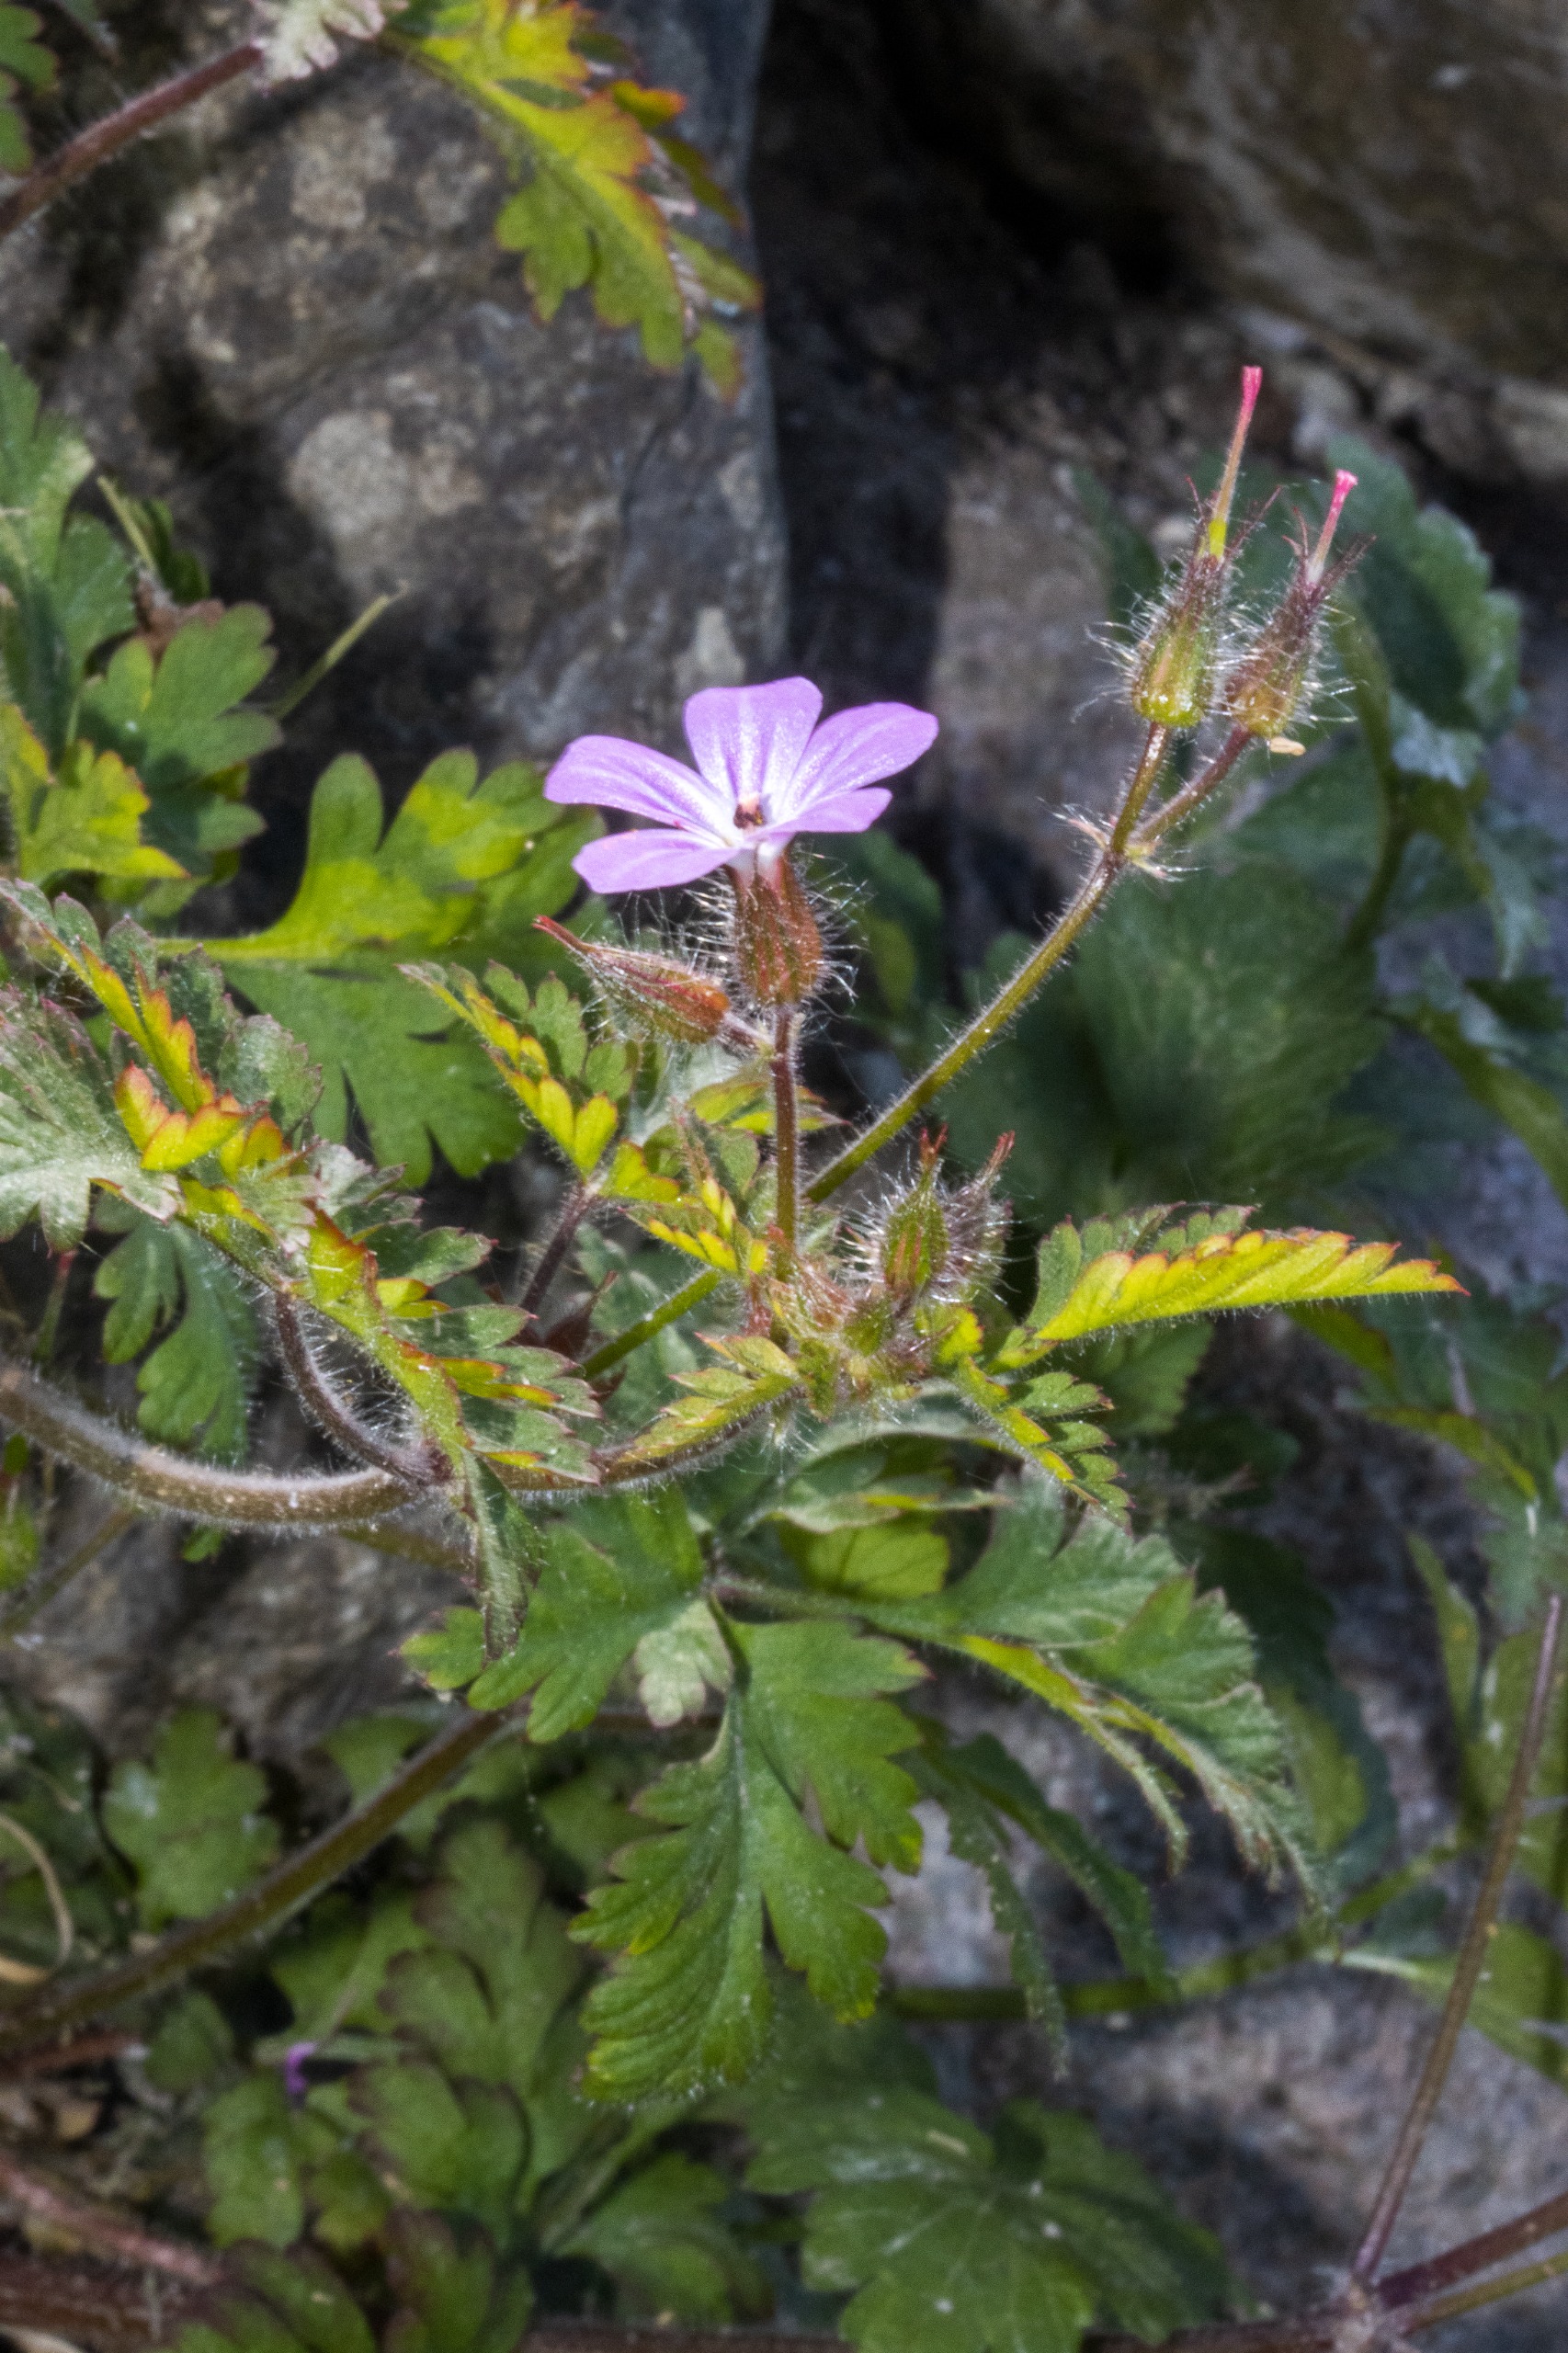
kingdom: Plantae
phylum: Tracheophyta
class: Magnoliopsida
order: Geraniales
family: Geraniaceae
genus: Geranium
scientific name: Geranium robertianum
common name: Stinkende storkenæb
